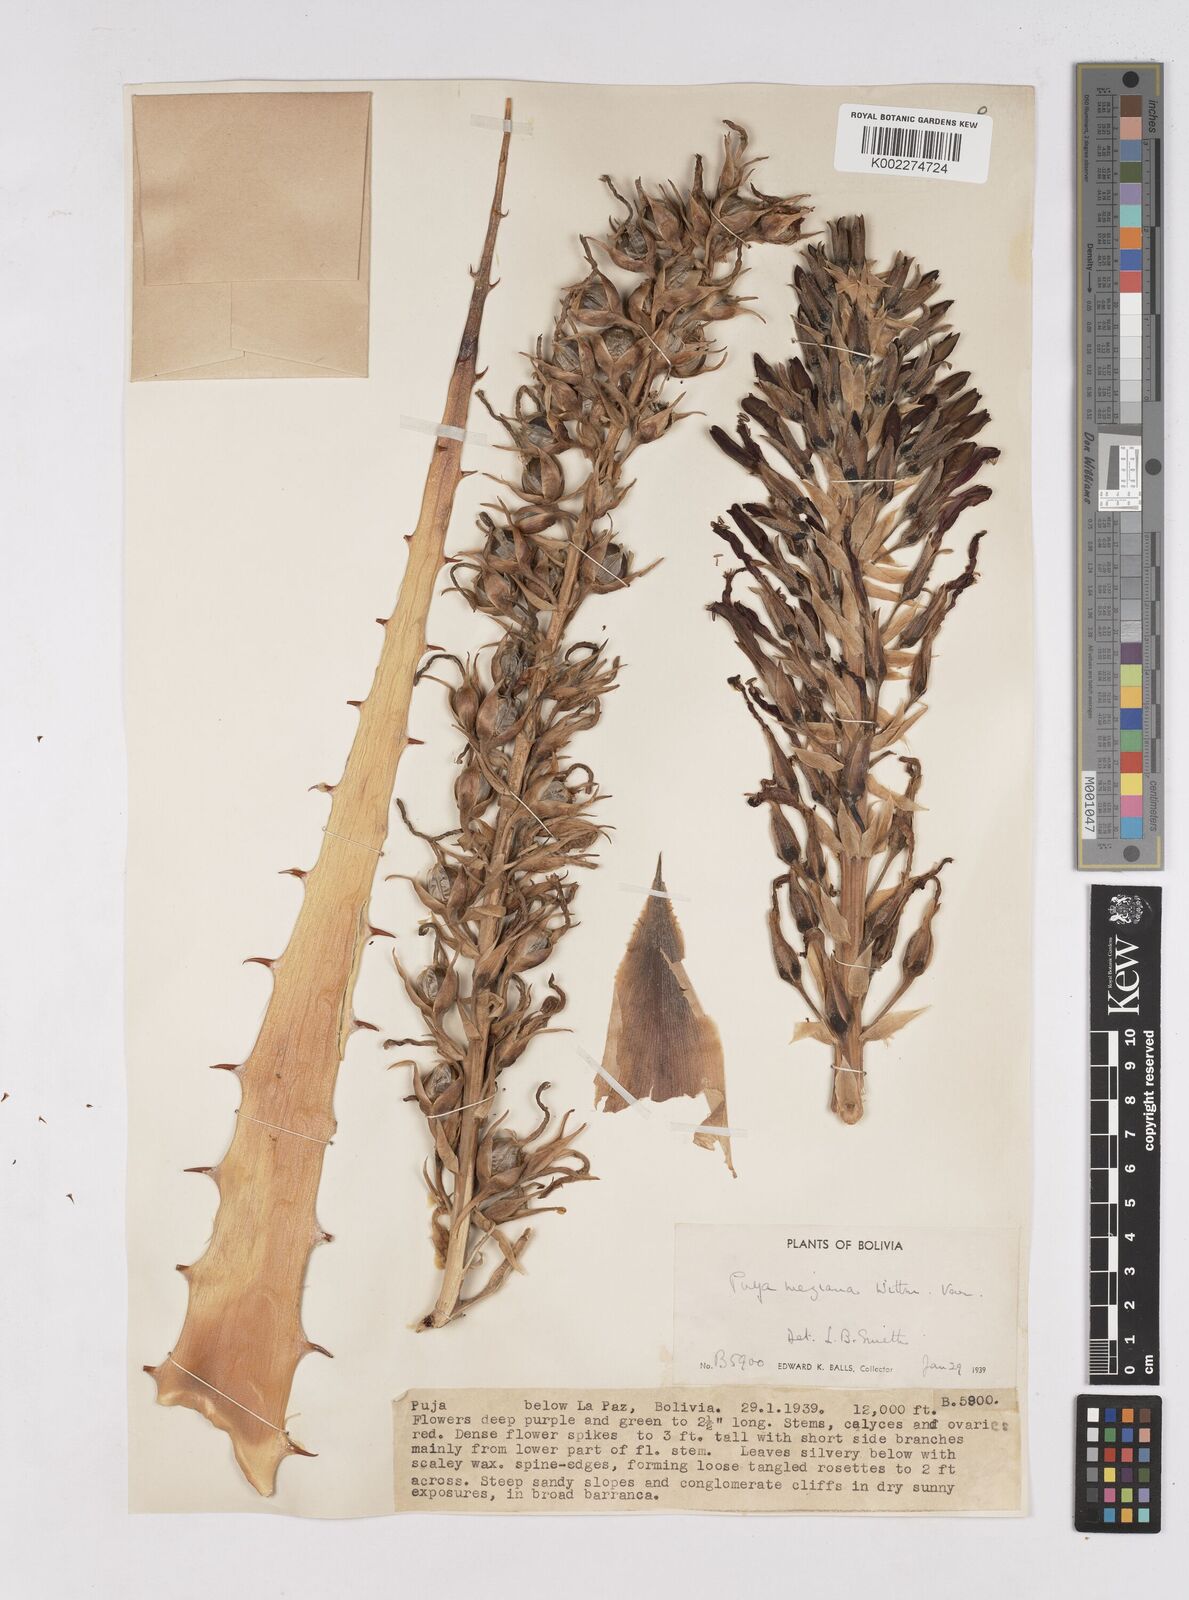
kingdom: Plantae
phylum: Tracheophyta
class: Liliopsida
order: Poales
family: Bromeliaceae
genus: Puya
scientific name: Puya meziana
